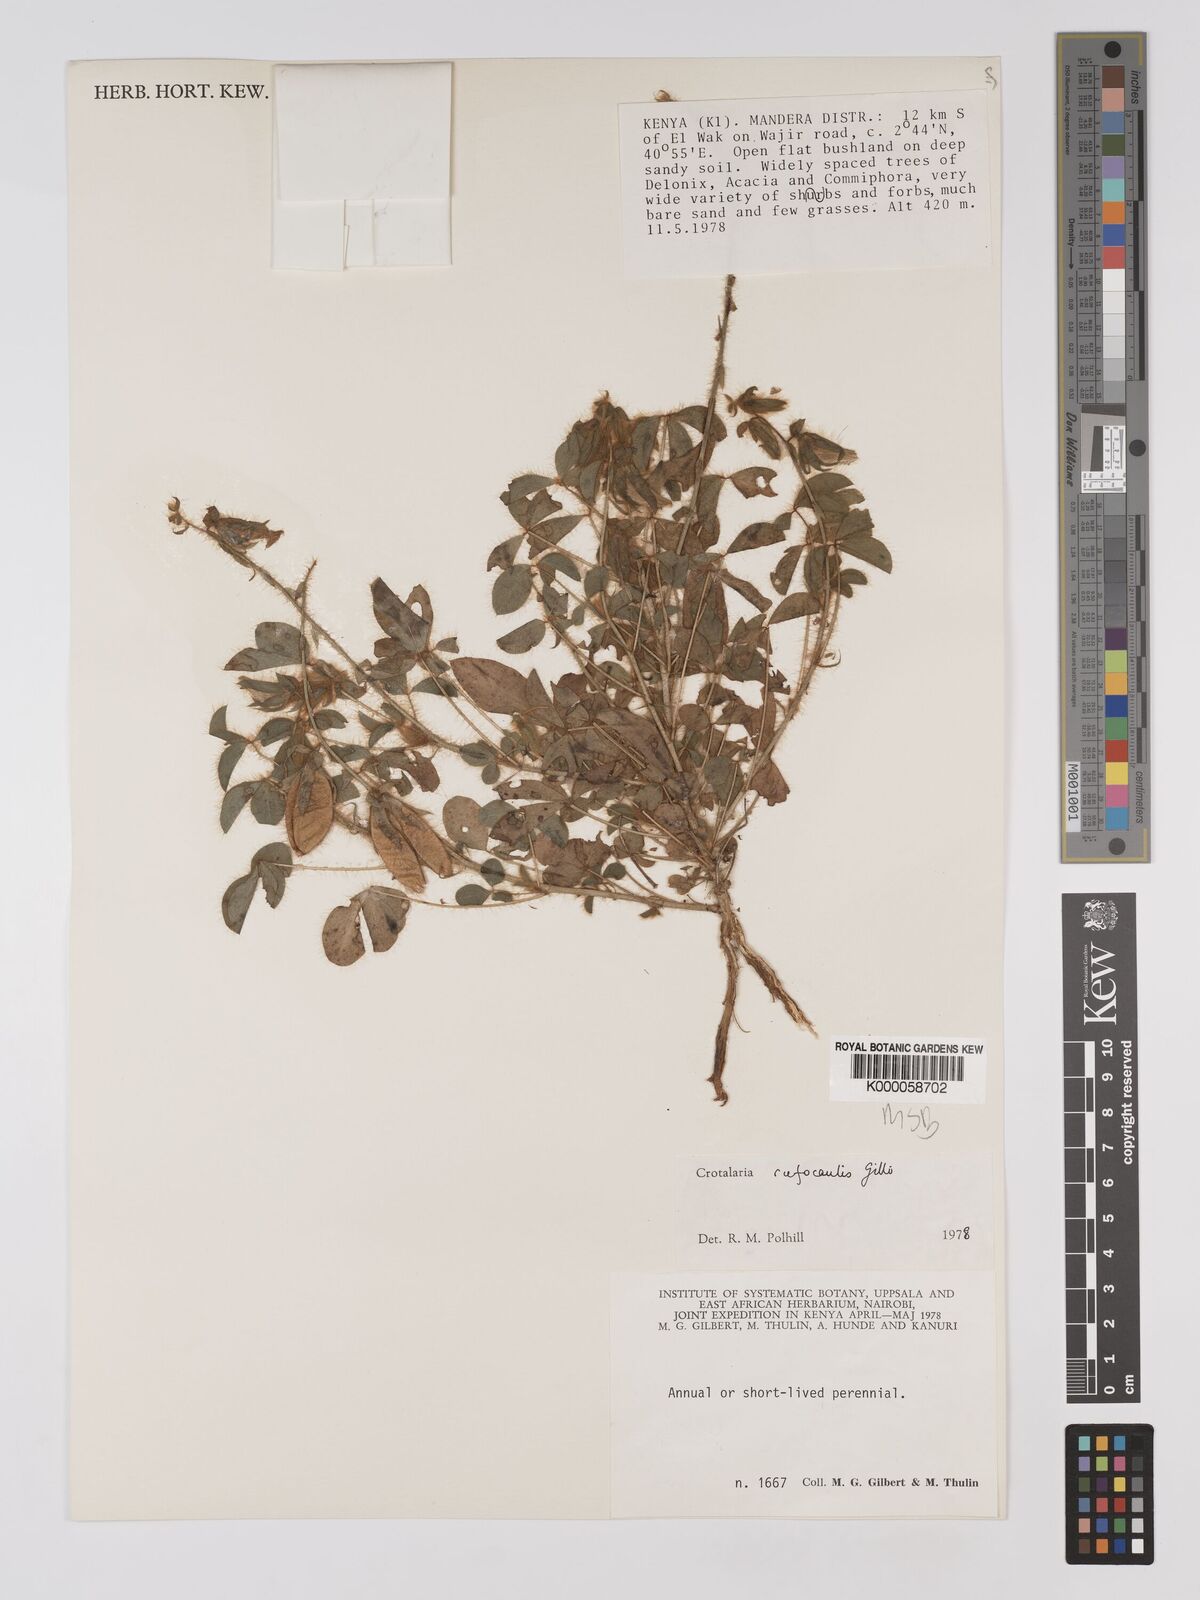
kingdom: Plantae
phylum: Tracheophyta
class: Magnoliopsida
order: Fabales
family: Fabaceae
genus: Crotalaria
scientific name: Crotalaria rufocaulis
